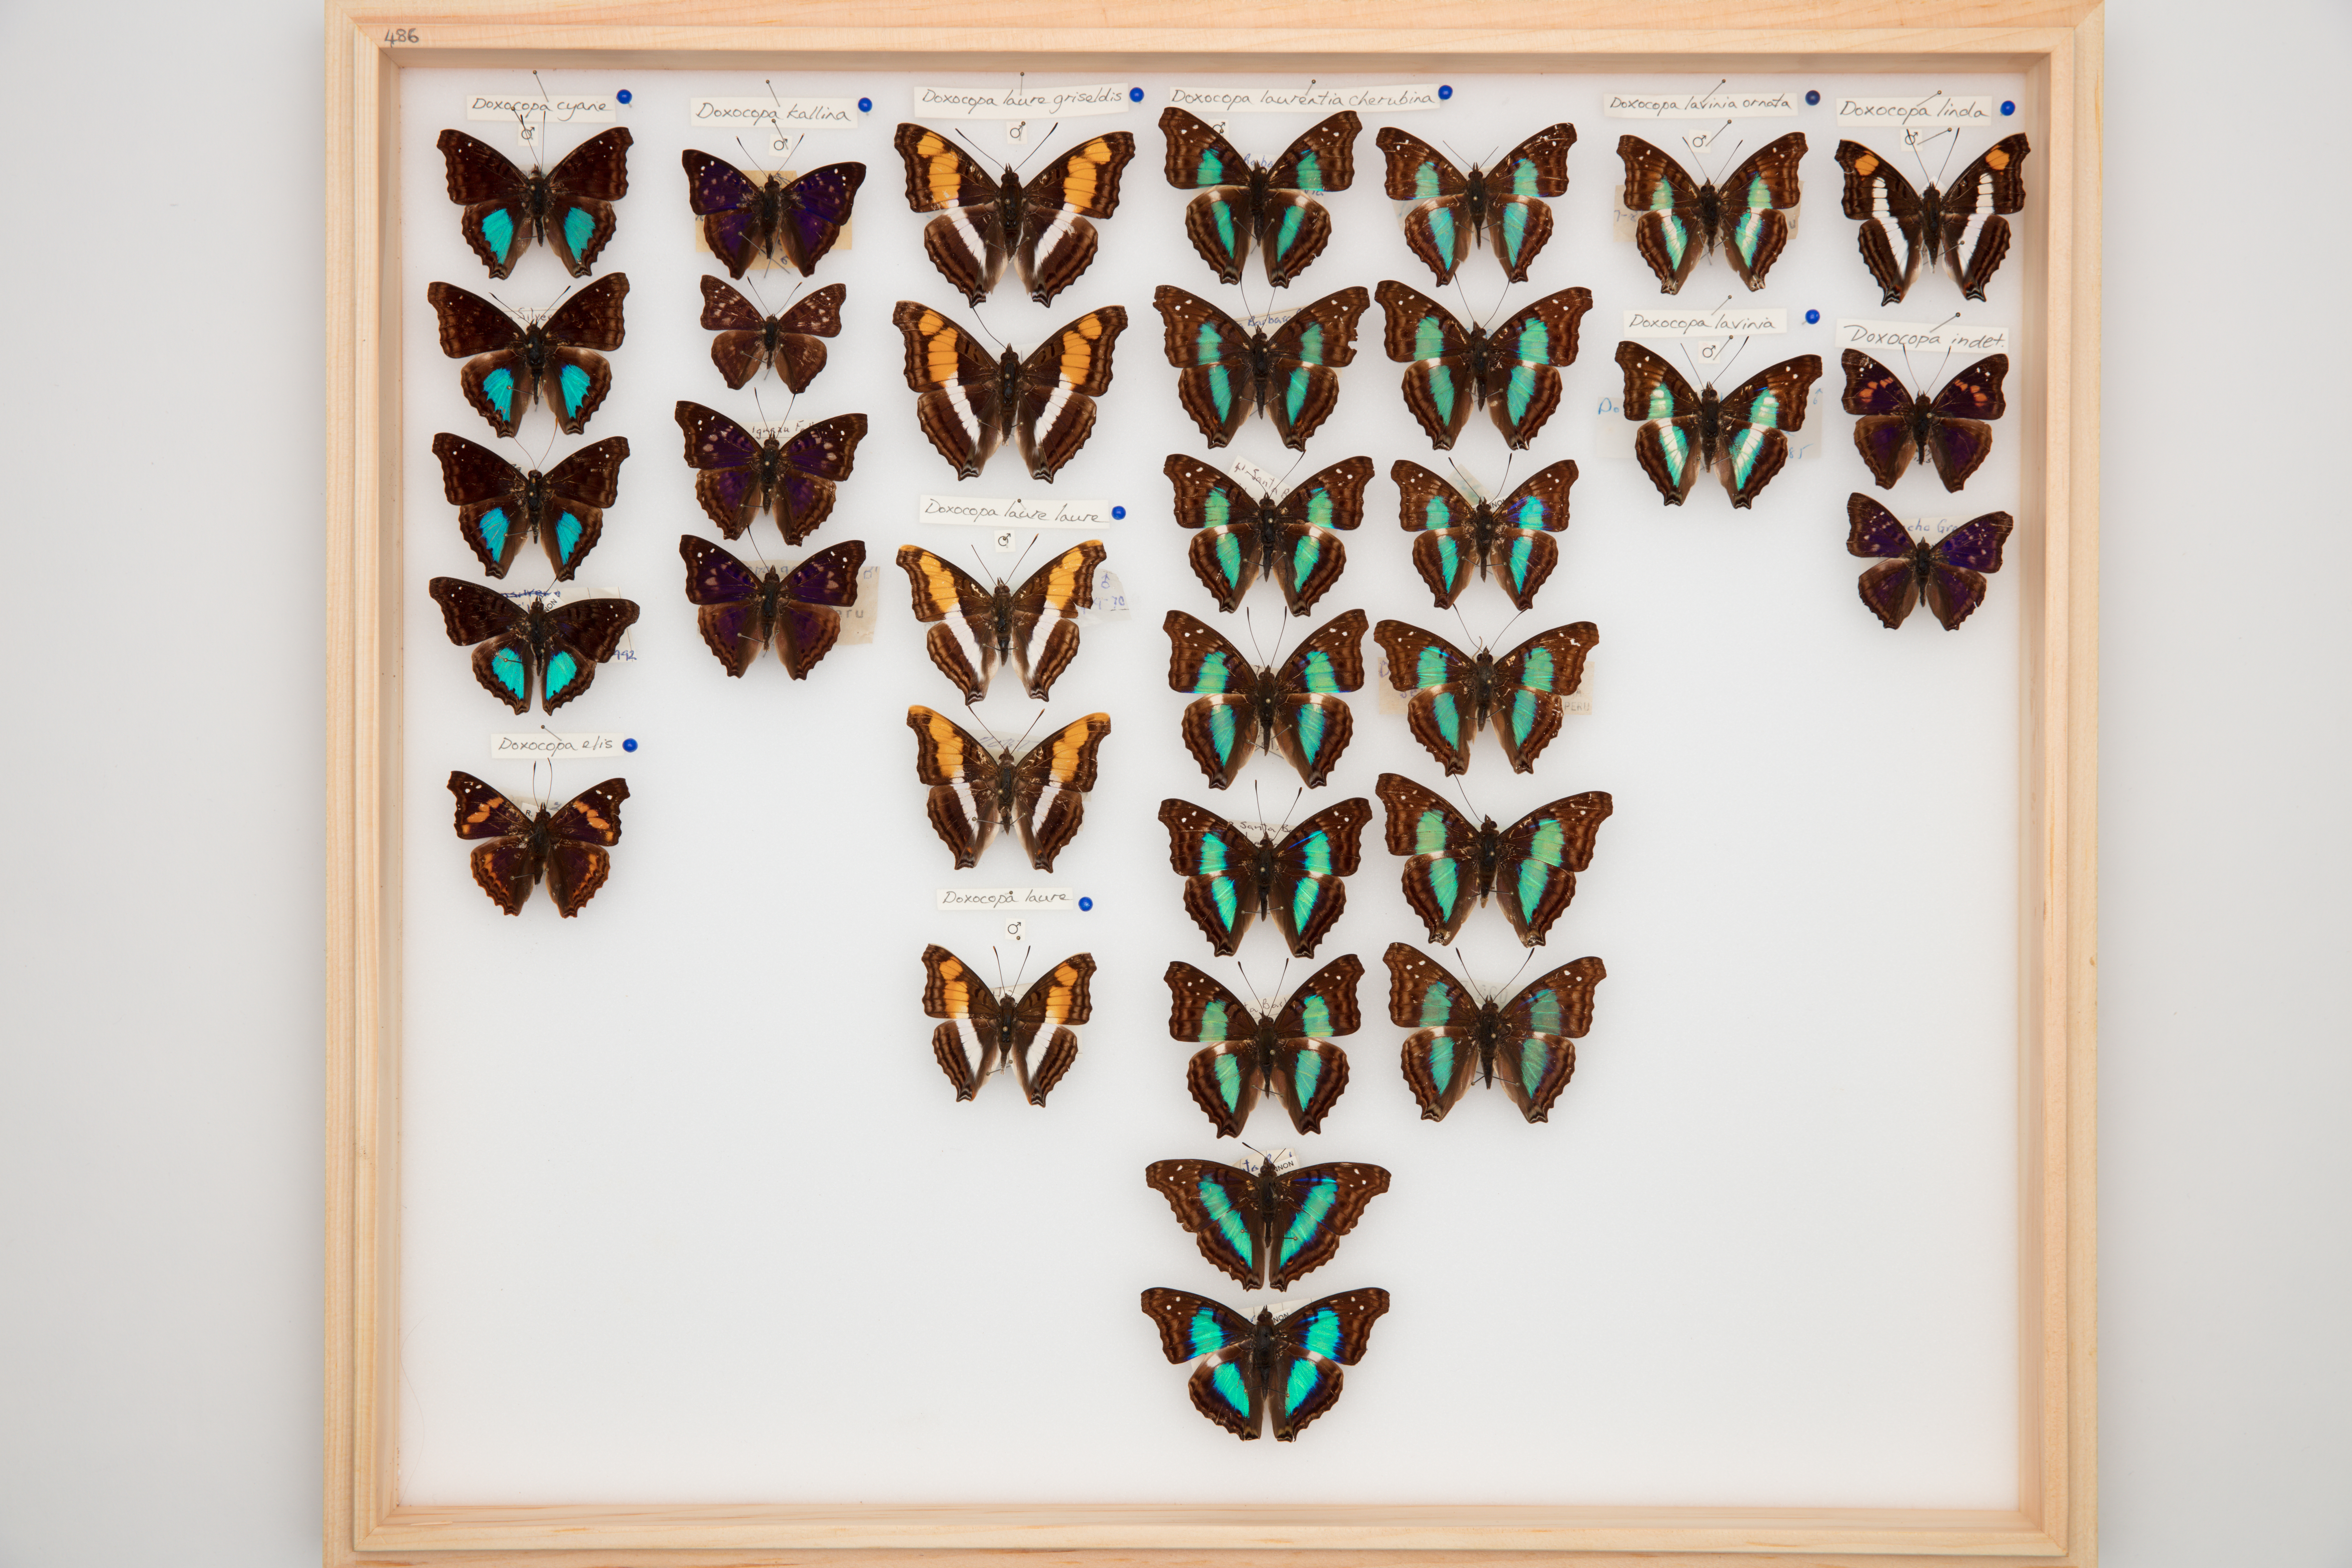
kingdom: Animalia
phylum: Arthropoda
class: Insecta
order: Lepidoptera
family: Nymphalidae
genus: Doxocopa
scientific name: Doxocopa laurentia
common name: Turquoise emperor
